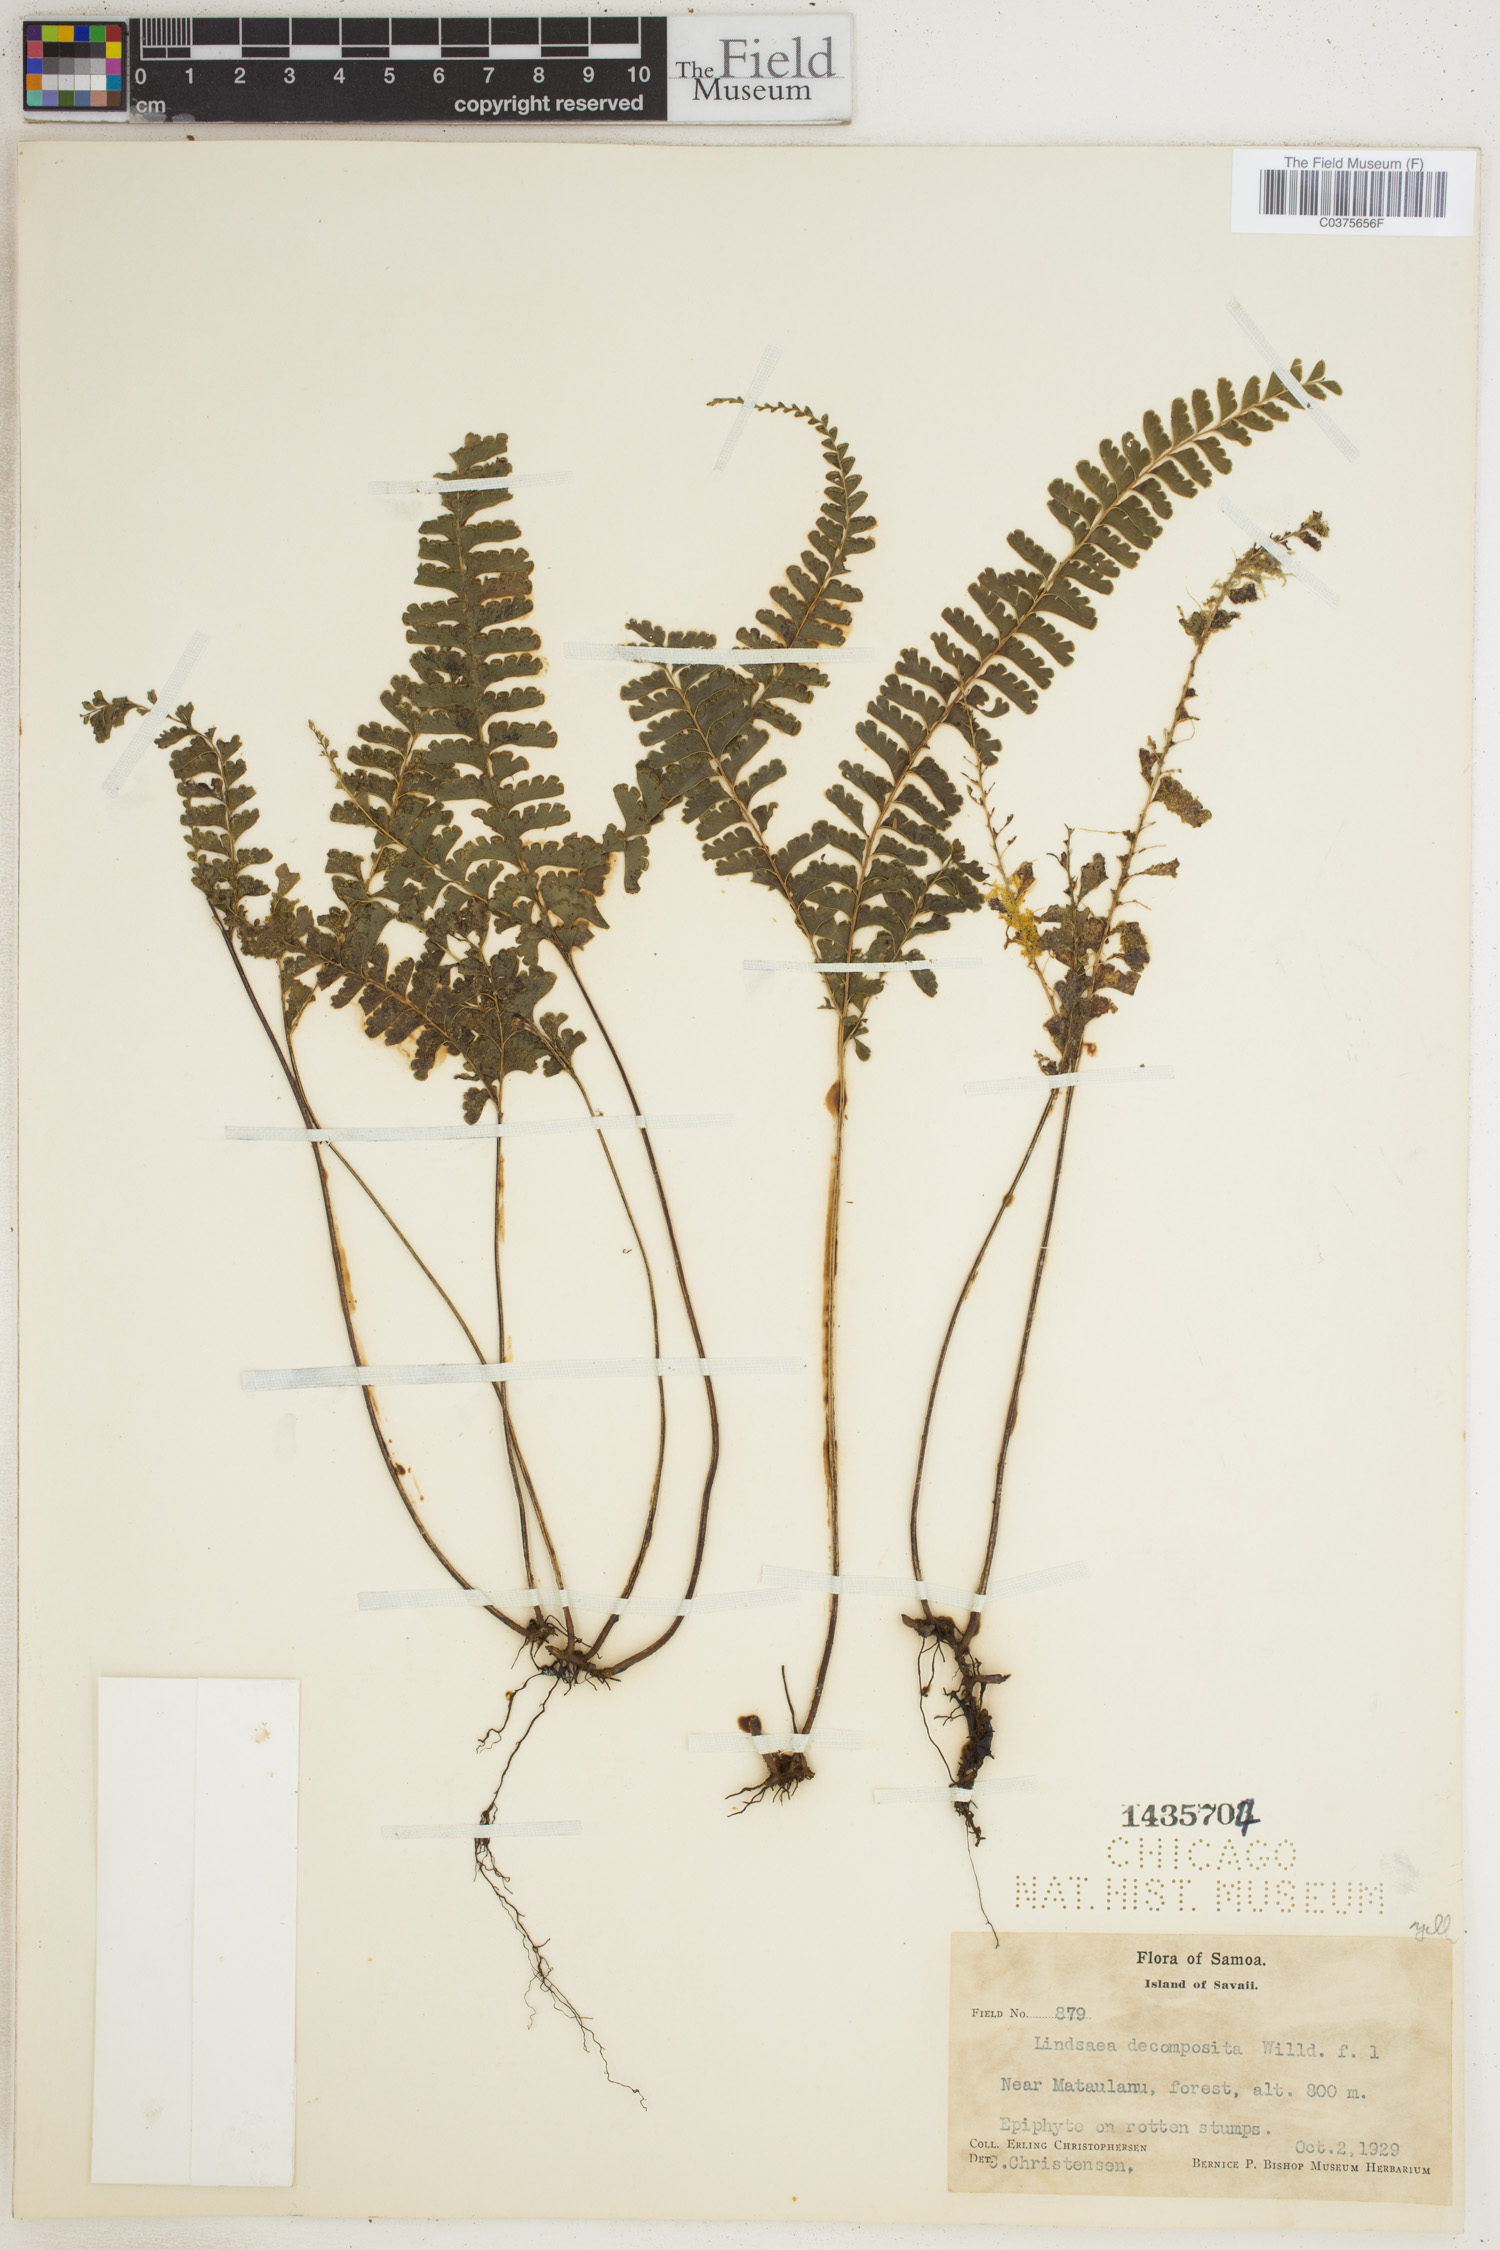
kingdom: Plantae
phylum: Tracheophyta
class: Polypodiopsida
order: Polypodiales
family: Lindsaeaceae
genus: Lindsaea
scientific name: Lindsaea cultrata
